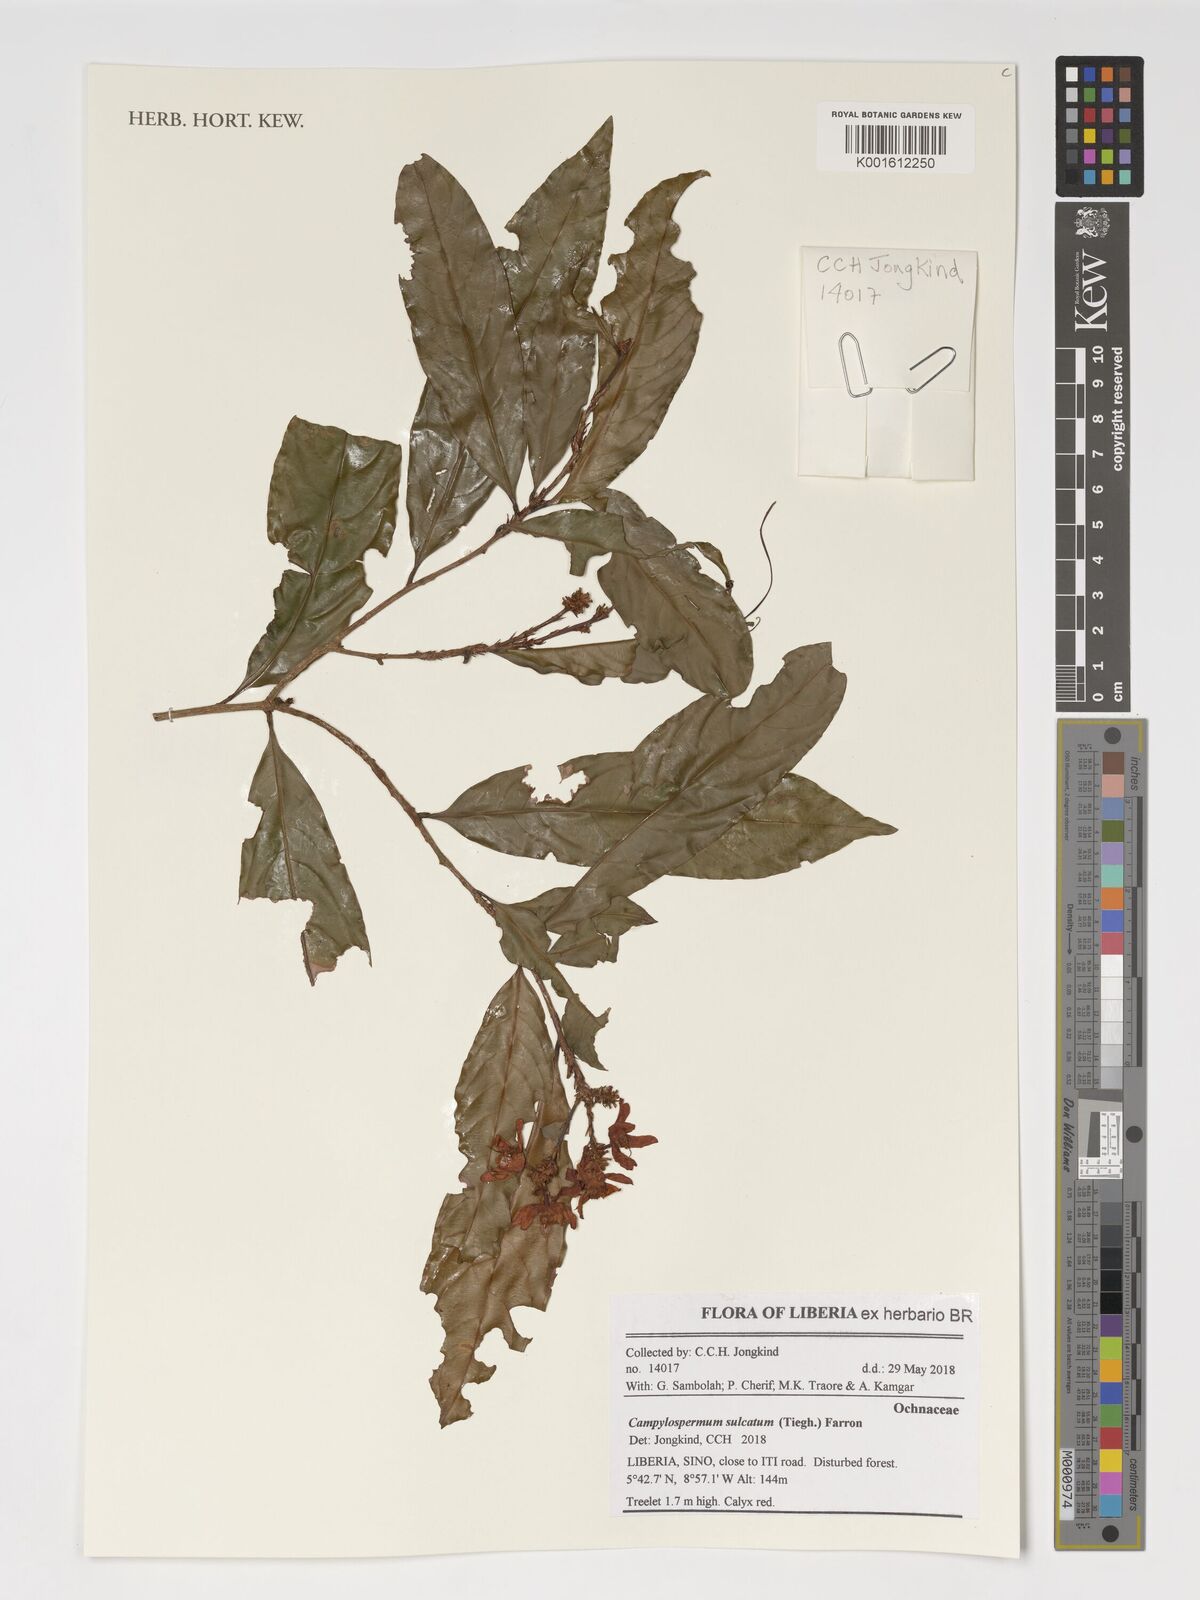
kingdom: Plantae
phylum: Tracheophyta
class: Magnoliopsida
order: Malpighiales
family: Ochnaceae
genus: Campylospermum
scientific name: Campylospermum sulcatum
